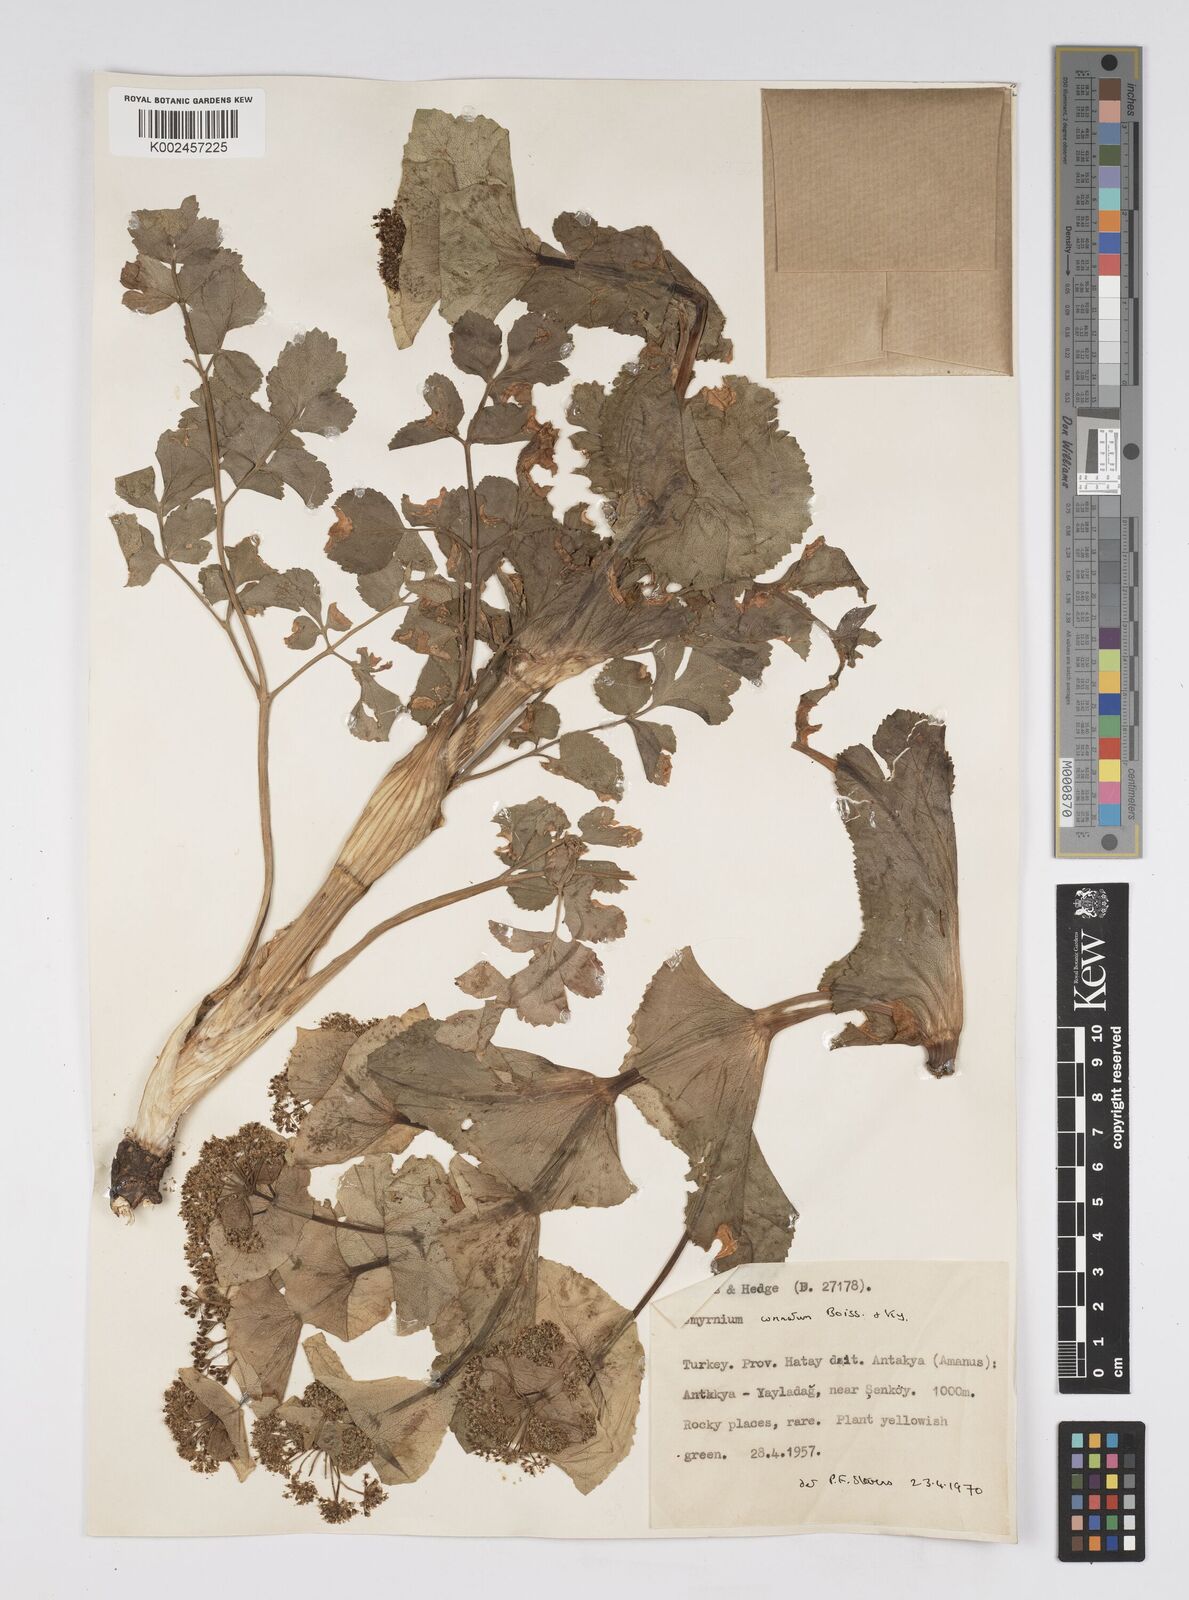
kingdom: Plantae
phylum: Tracheophyta
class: Magnoliopsida
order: Apiales
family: Apiaceae
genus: Smyrnium
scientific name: Smyrnium connatum
